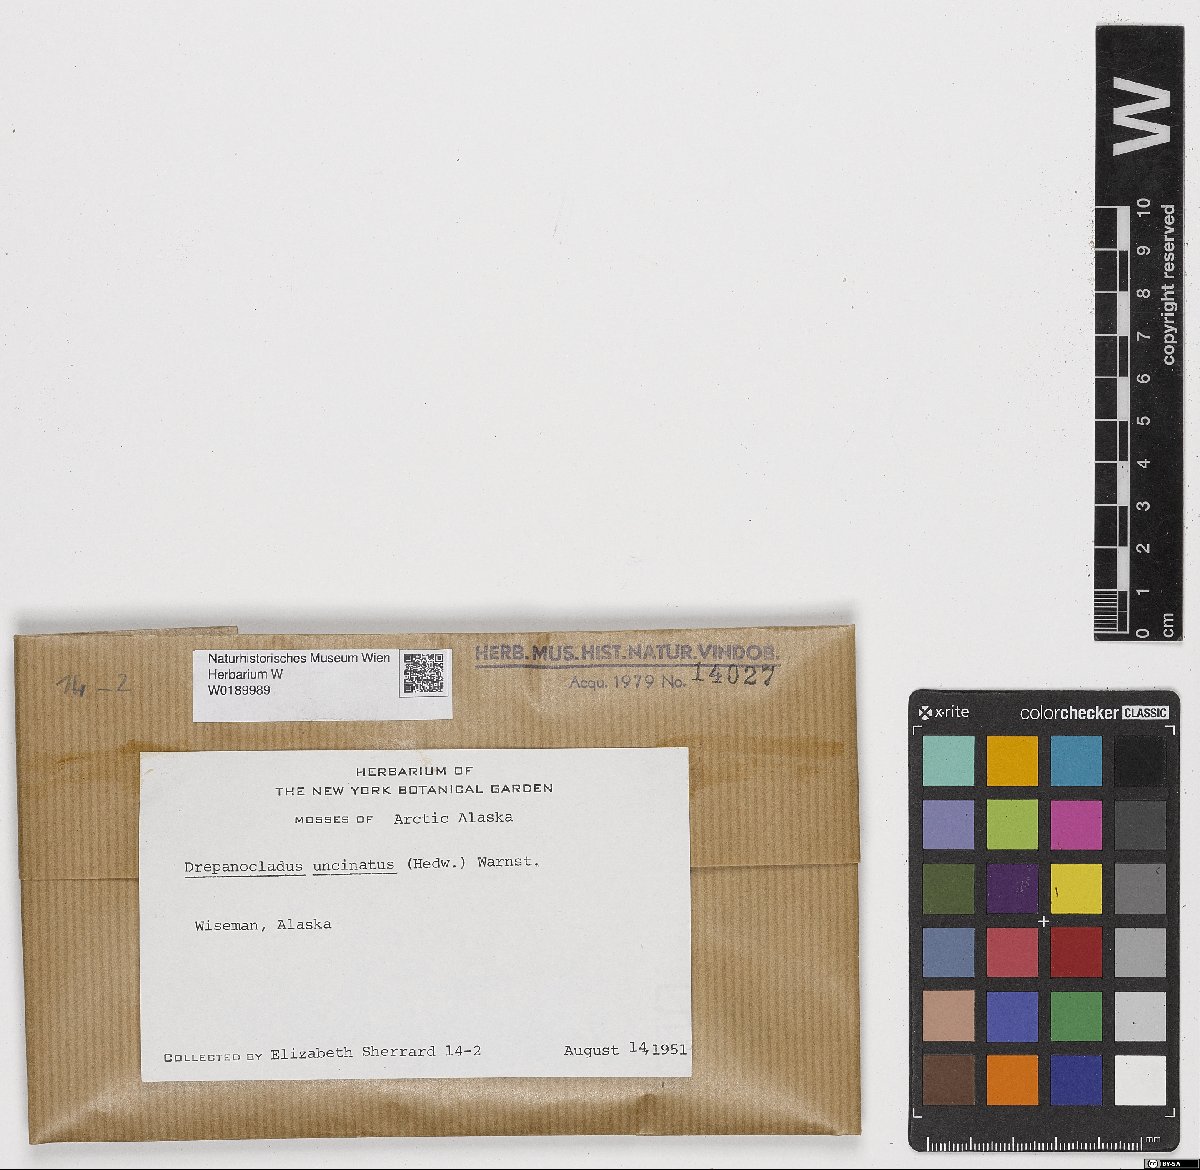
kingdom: Plantae
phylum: Bryophyta
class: Bryopsida
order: Hypnales
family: Scorpidiaceae
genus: Sanionia
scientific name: Sanionia uncinata
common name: Sickle moss
